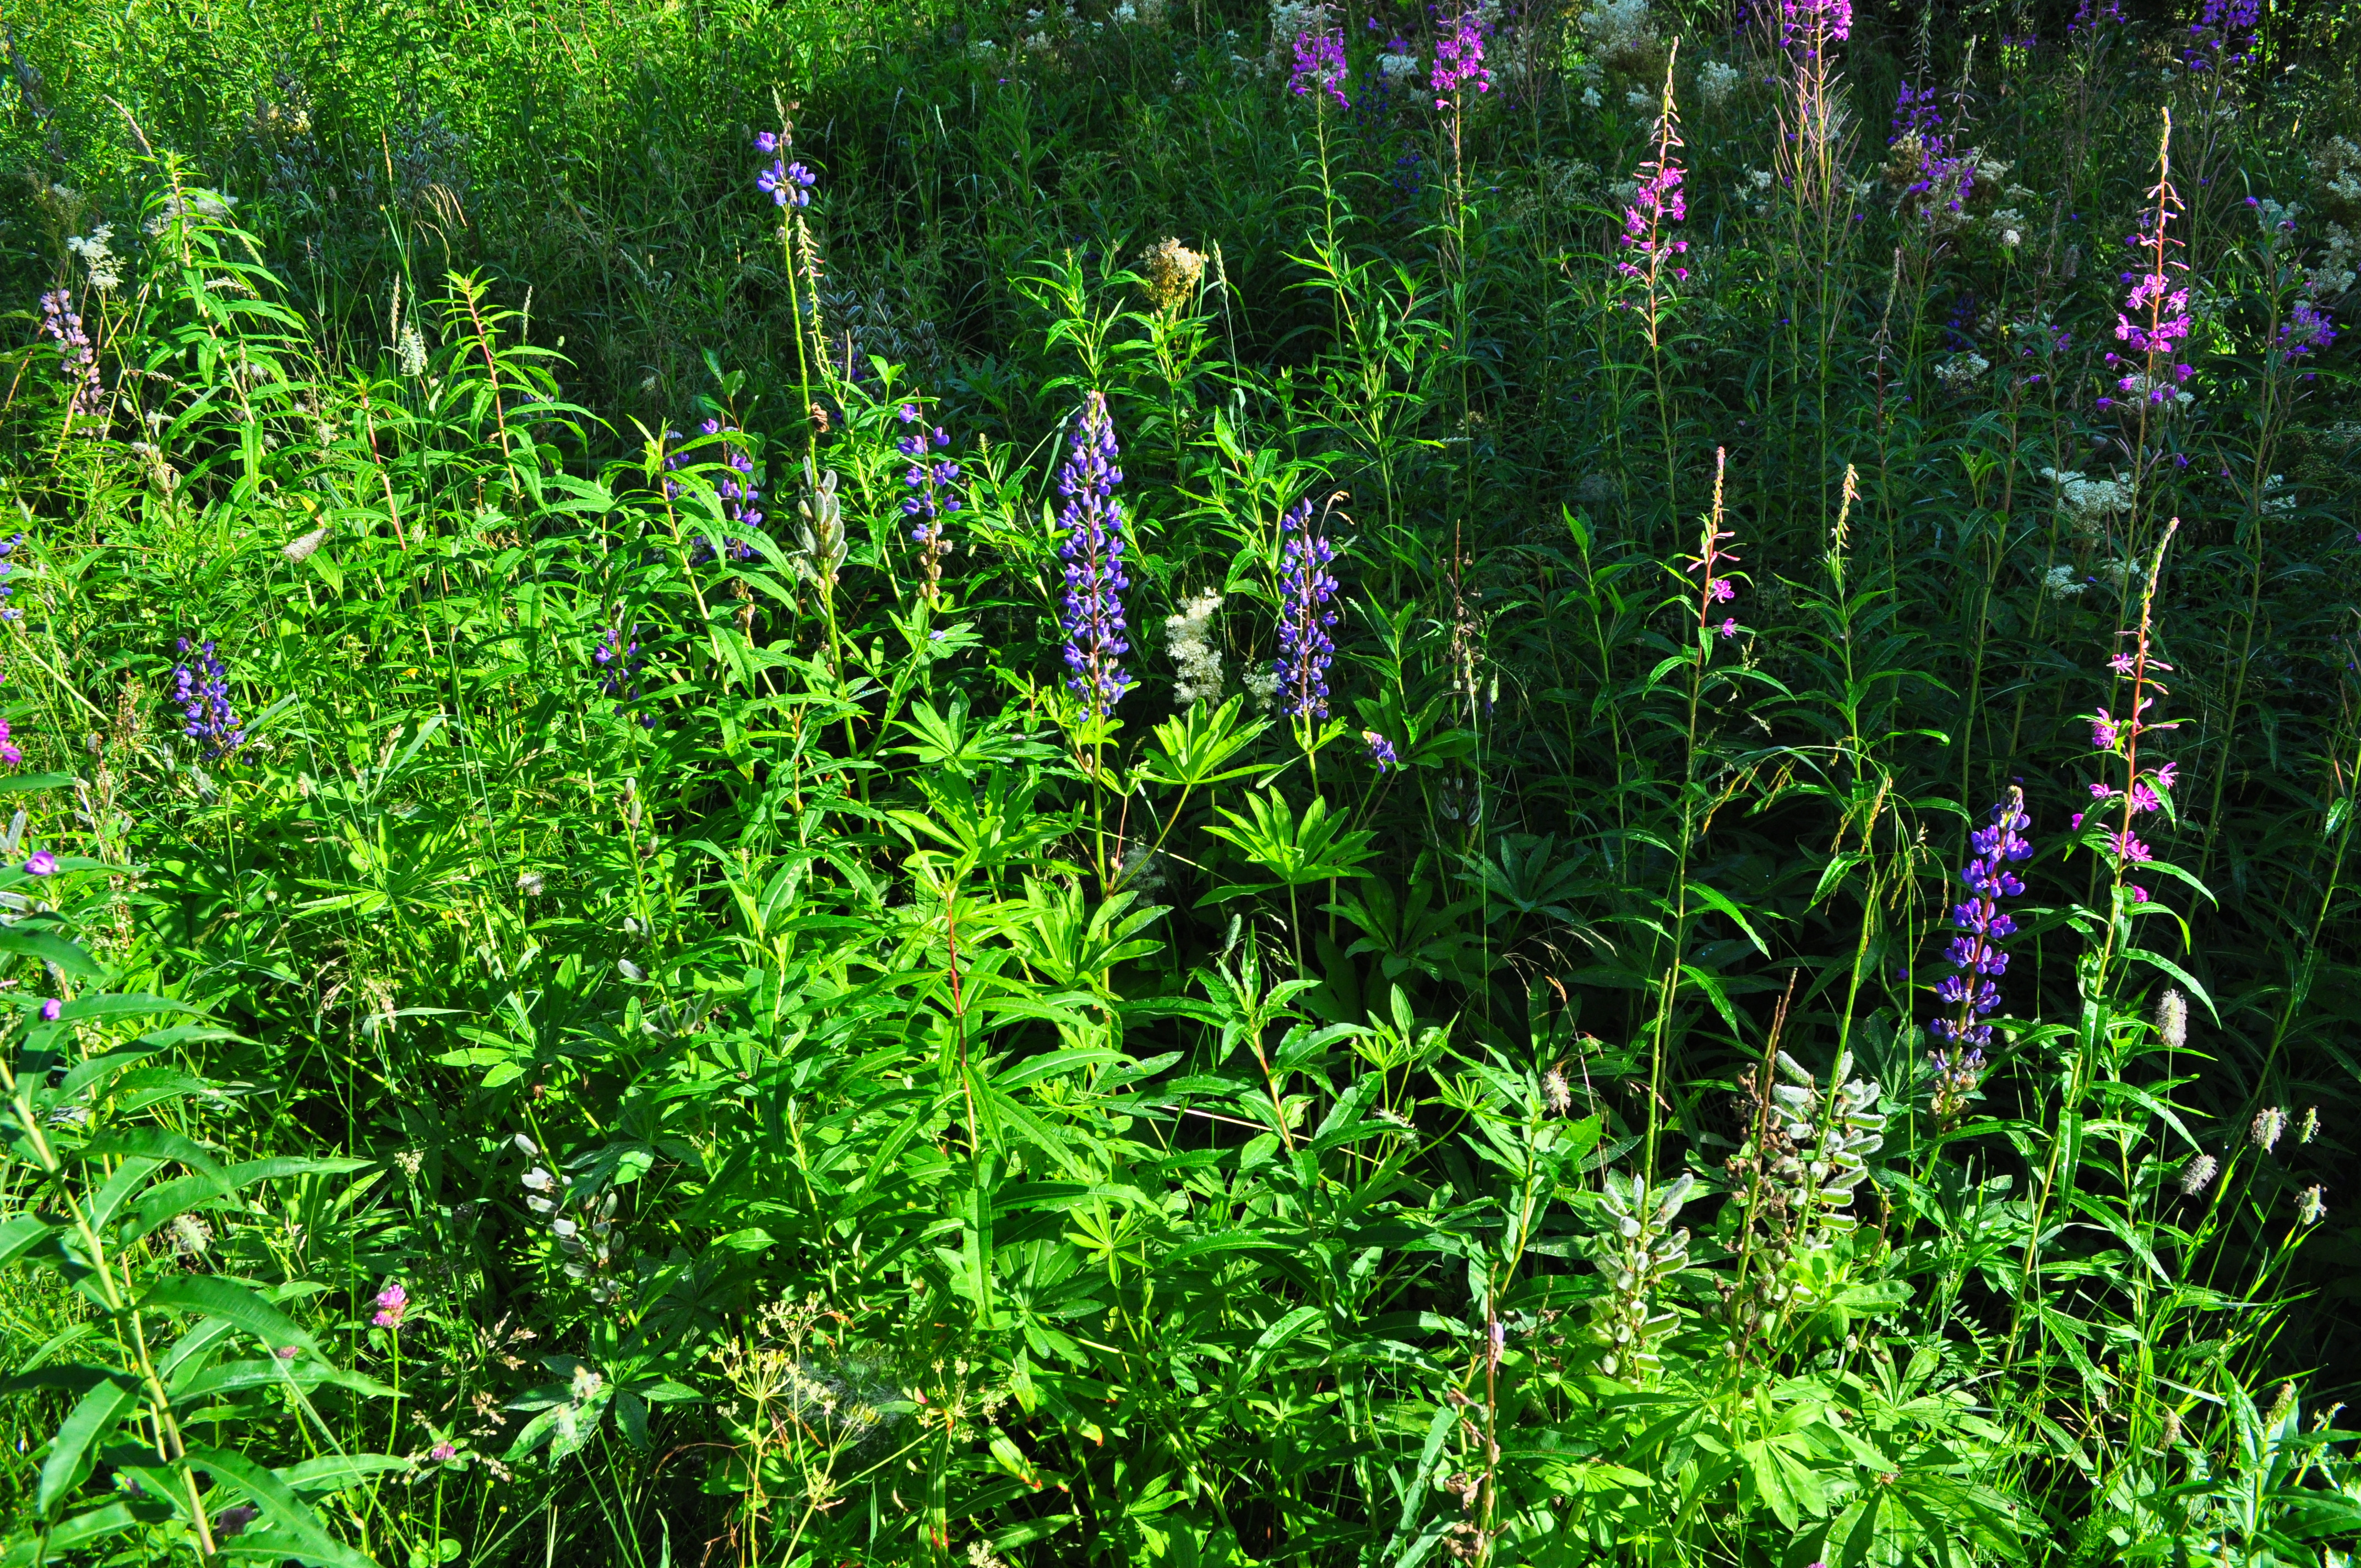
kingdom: Plantae
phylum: Tracheophyta
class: Magnoliopsida
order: Fabales
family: Fabaceae
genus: Lupinus
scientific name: Lupinus polyphyllus
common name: Garden lupin
